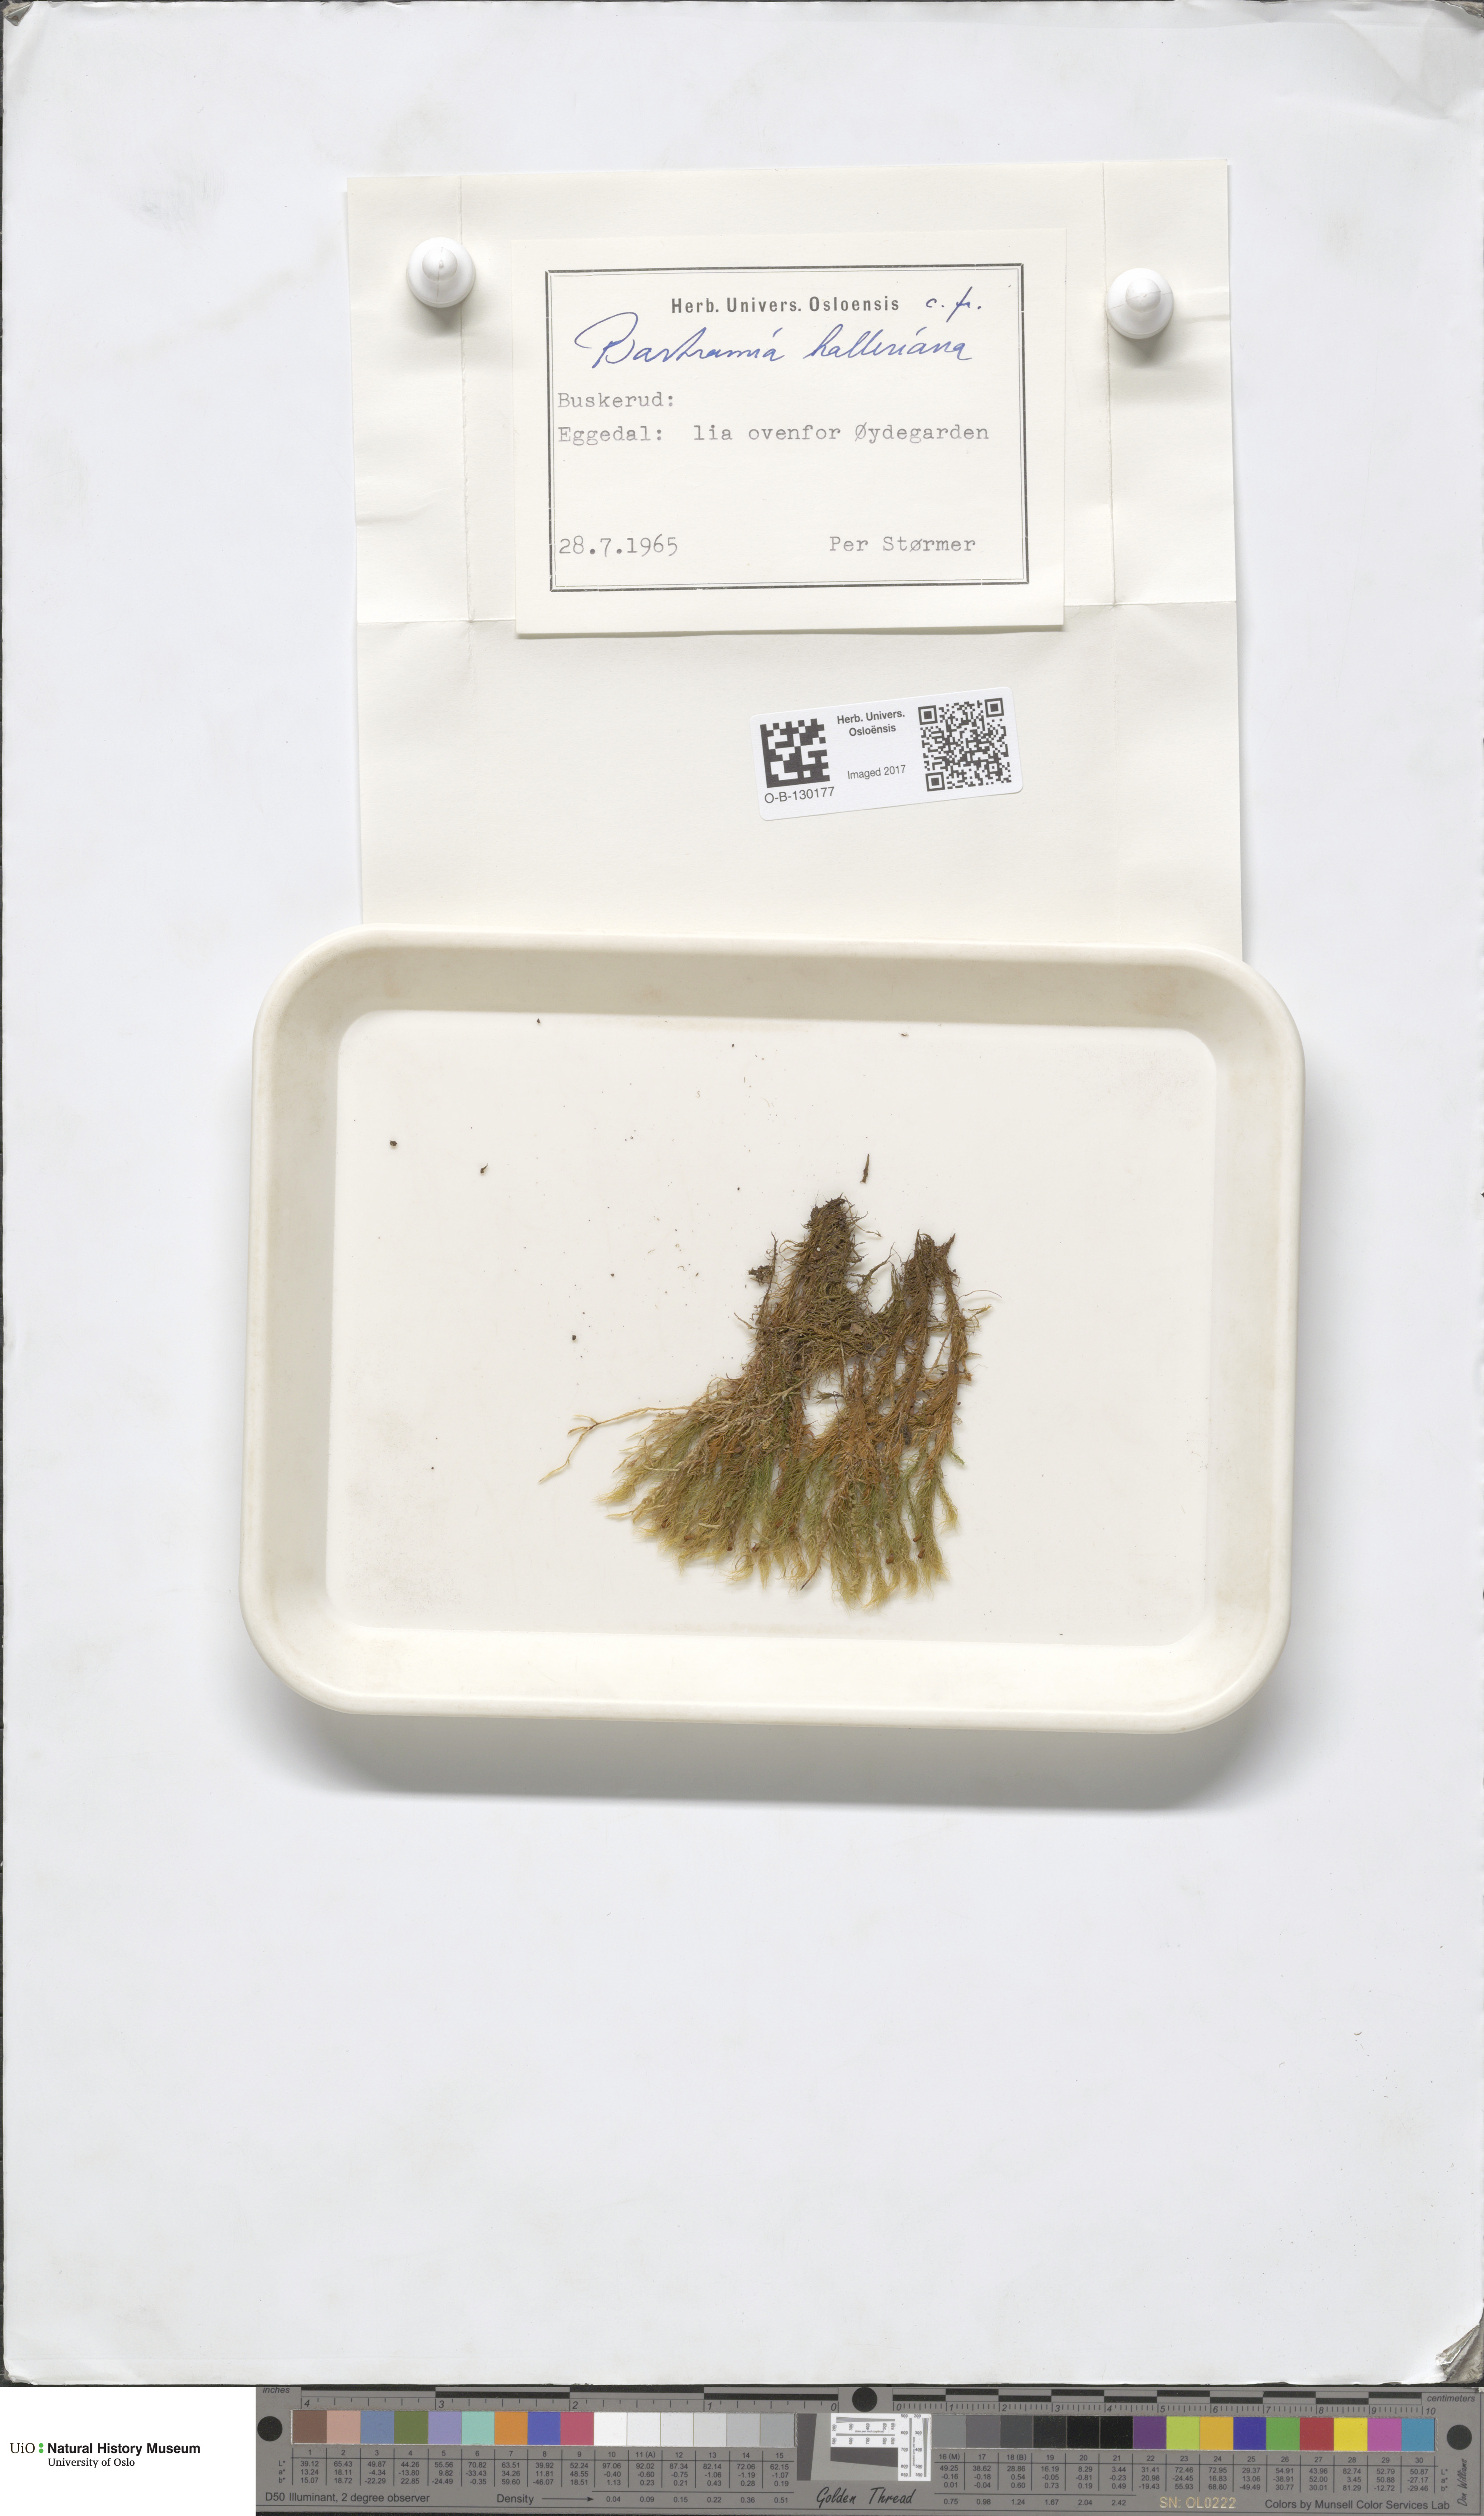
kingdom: Plantae
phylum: Bryophyta
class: Bryopsida
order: Bartramiales
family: Bartramiaceae
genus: Bartramia
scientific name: Bartramia halleriana
